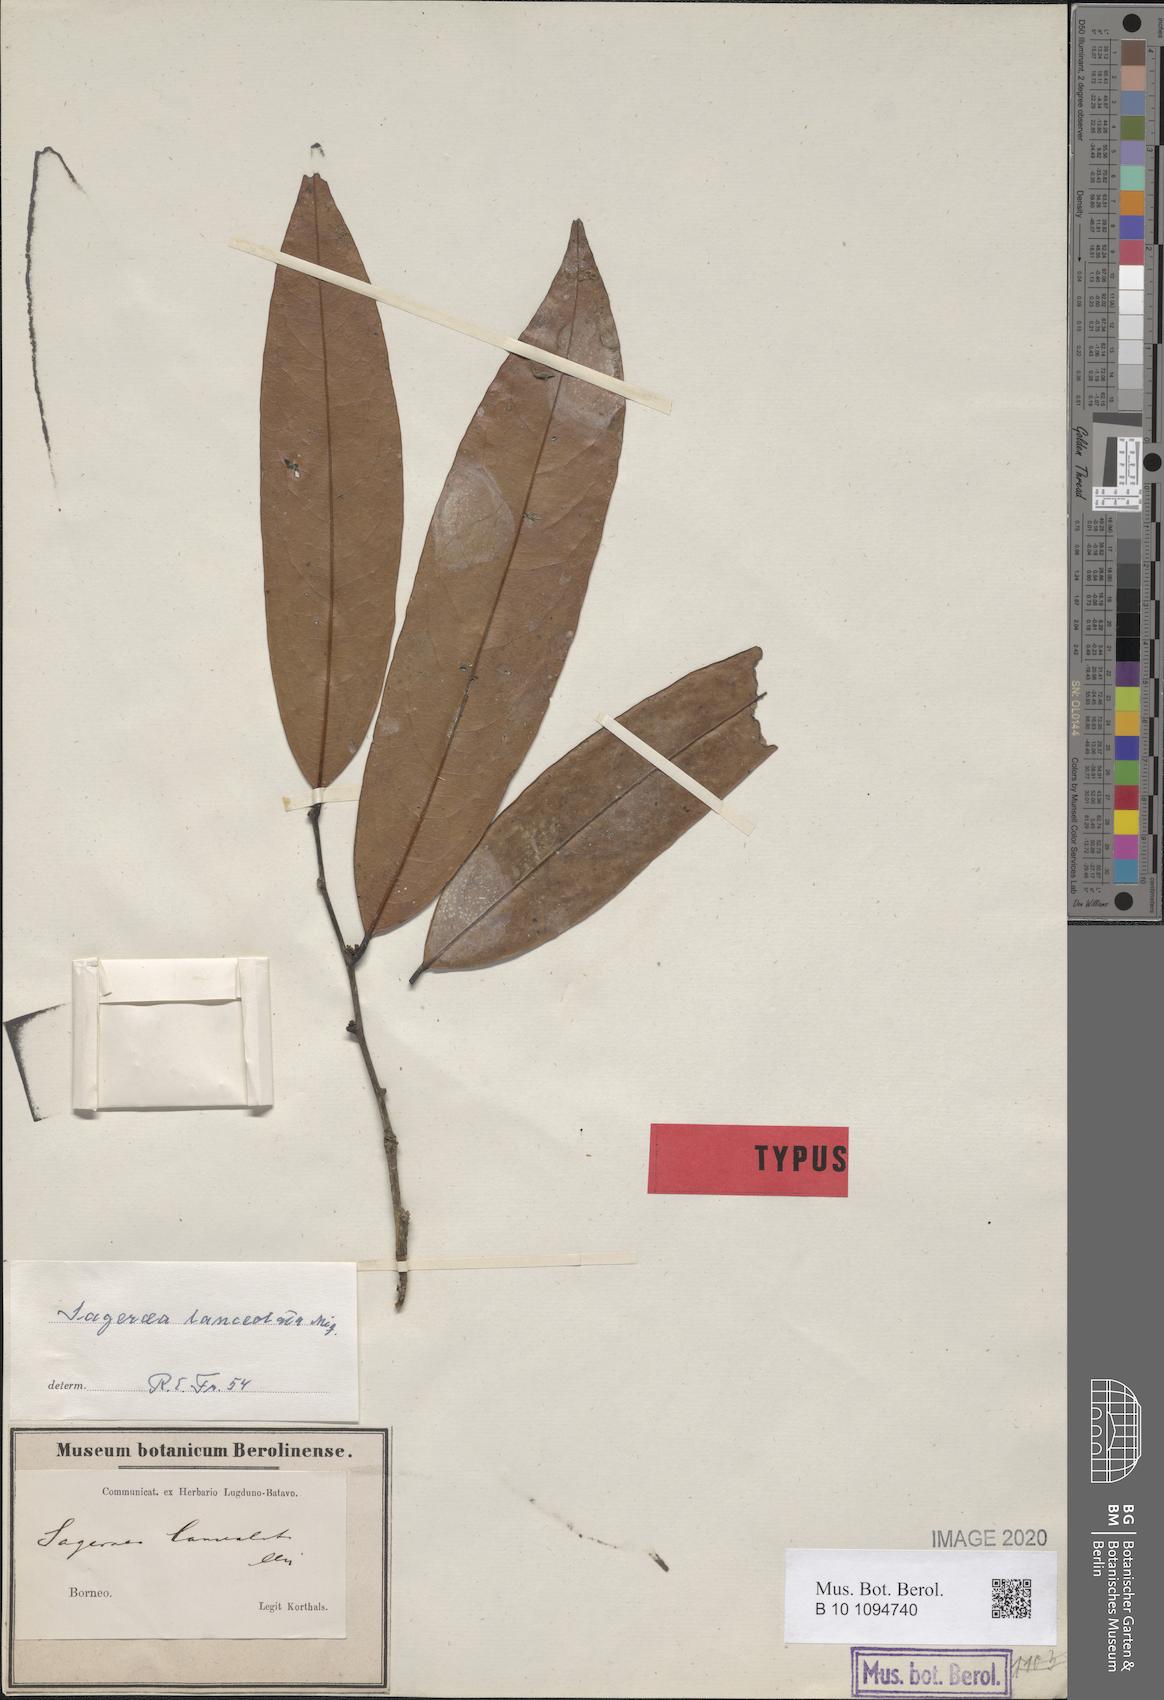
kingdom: Plantae
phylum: Tracheophyta
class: Magnoliopsida
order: Magnoliales
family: Annonaceae
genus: Sageraea
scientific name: Sageraea lanceolata
